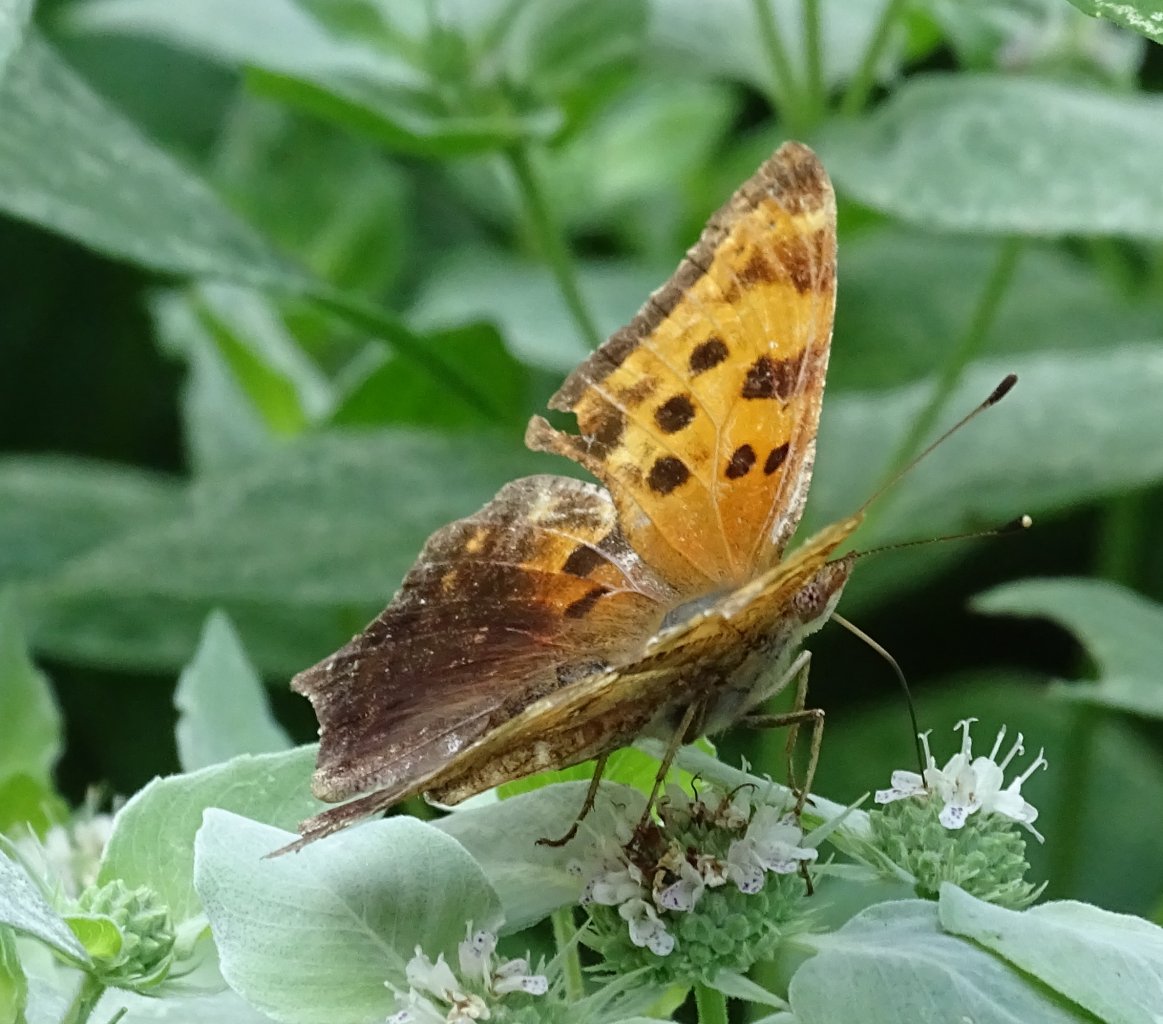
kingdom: Animalia
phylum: Arthropoda
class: Insecta
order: Lepidoptera
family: Nymphalidae
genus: Polygonia
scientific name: Polygonia comma
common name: Eastern Comma
